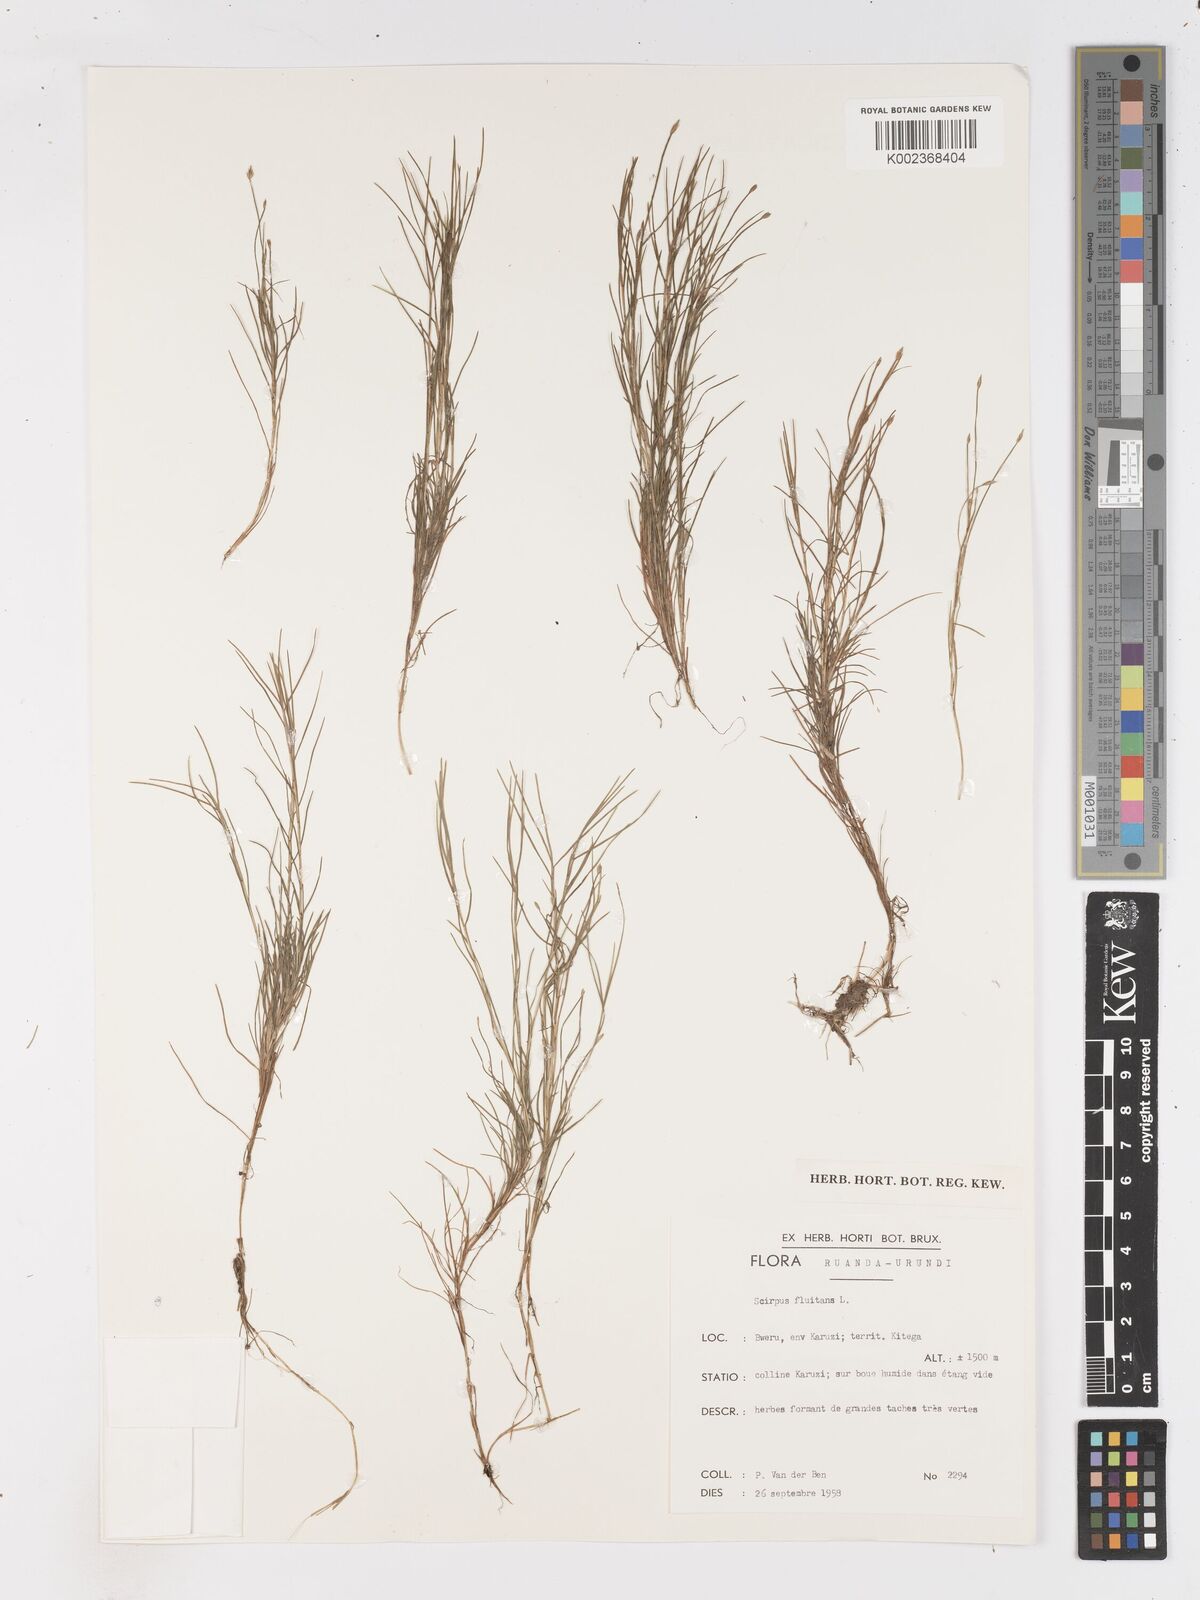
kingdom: Plantae
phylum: Tracheophyta
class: Liliopsida
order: Poales
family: Cyperaceae
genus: Isolepis
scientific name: Isolepis fluitans
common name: Floating club-rush
